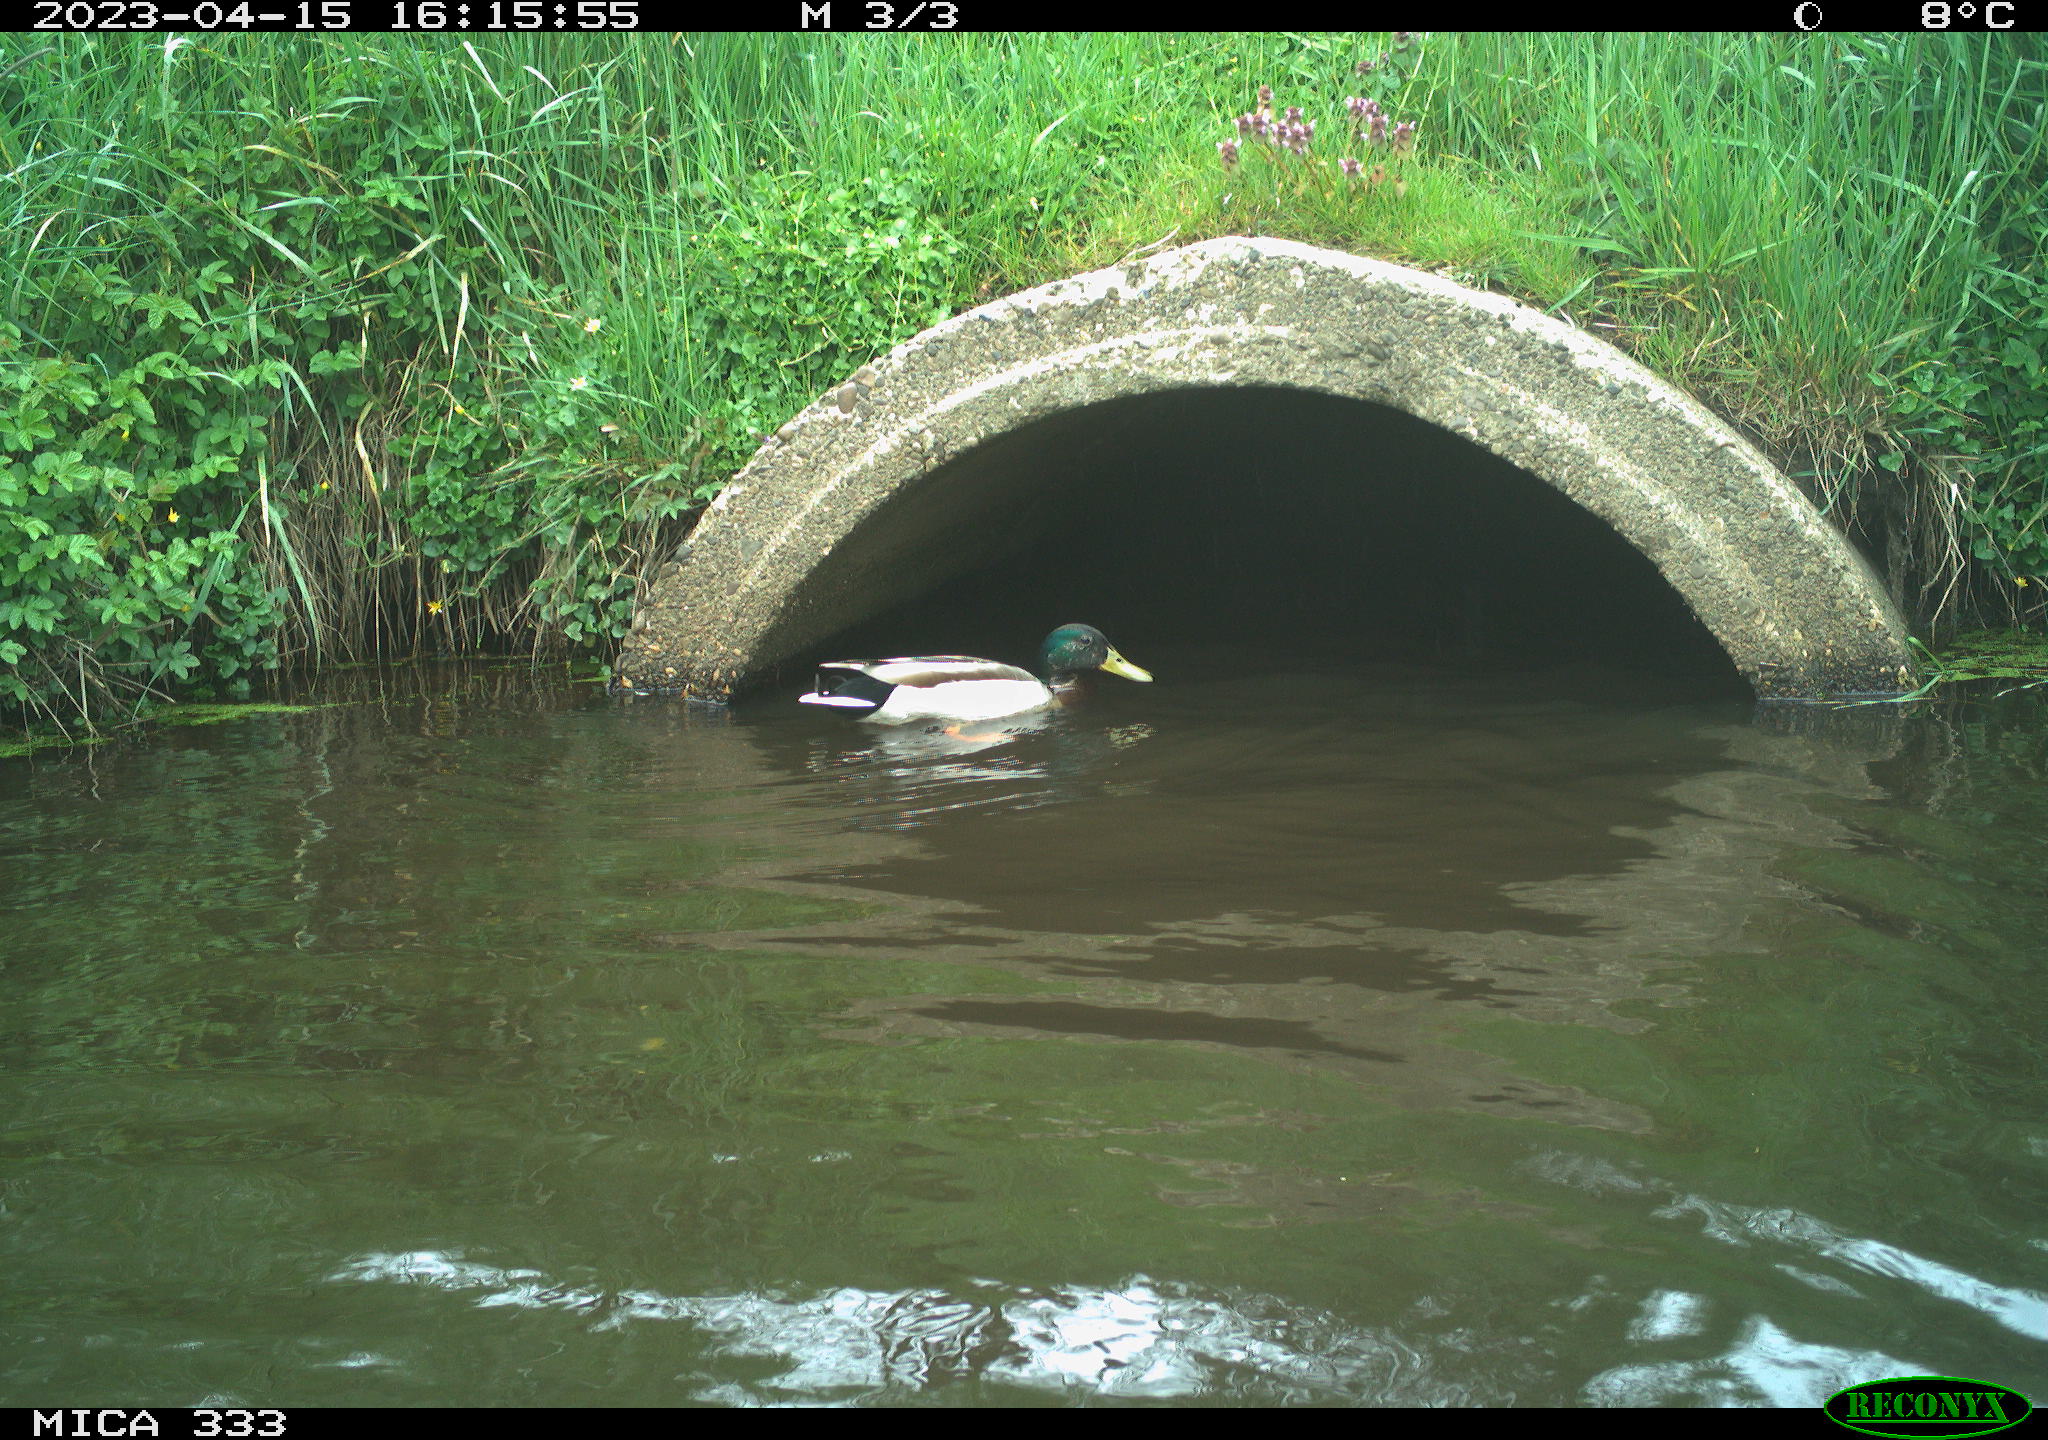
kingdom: Animalia
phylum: Chordata
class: Aves
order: Anseriformes
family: Anatidae
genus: Anas
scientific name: Anas platyrhynchos
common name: Mallard
